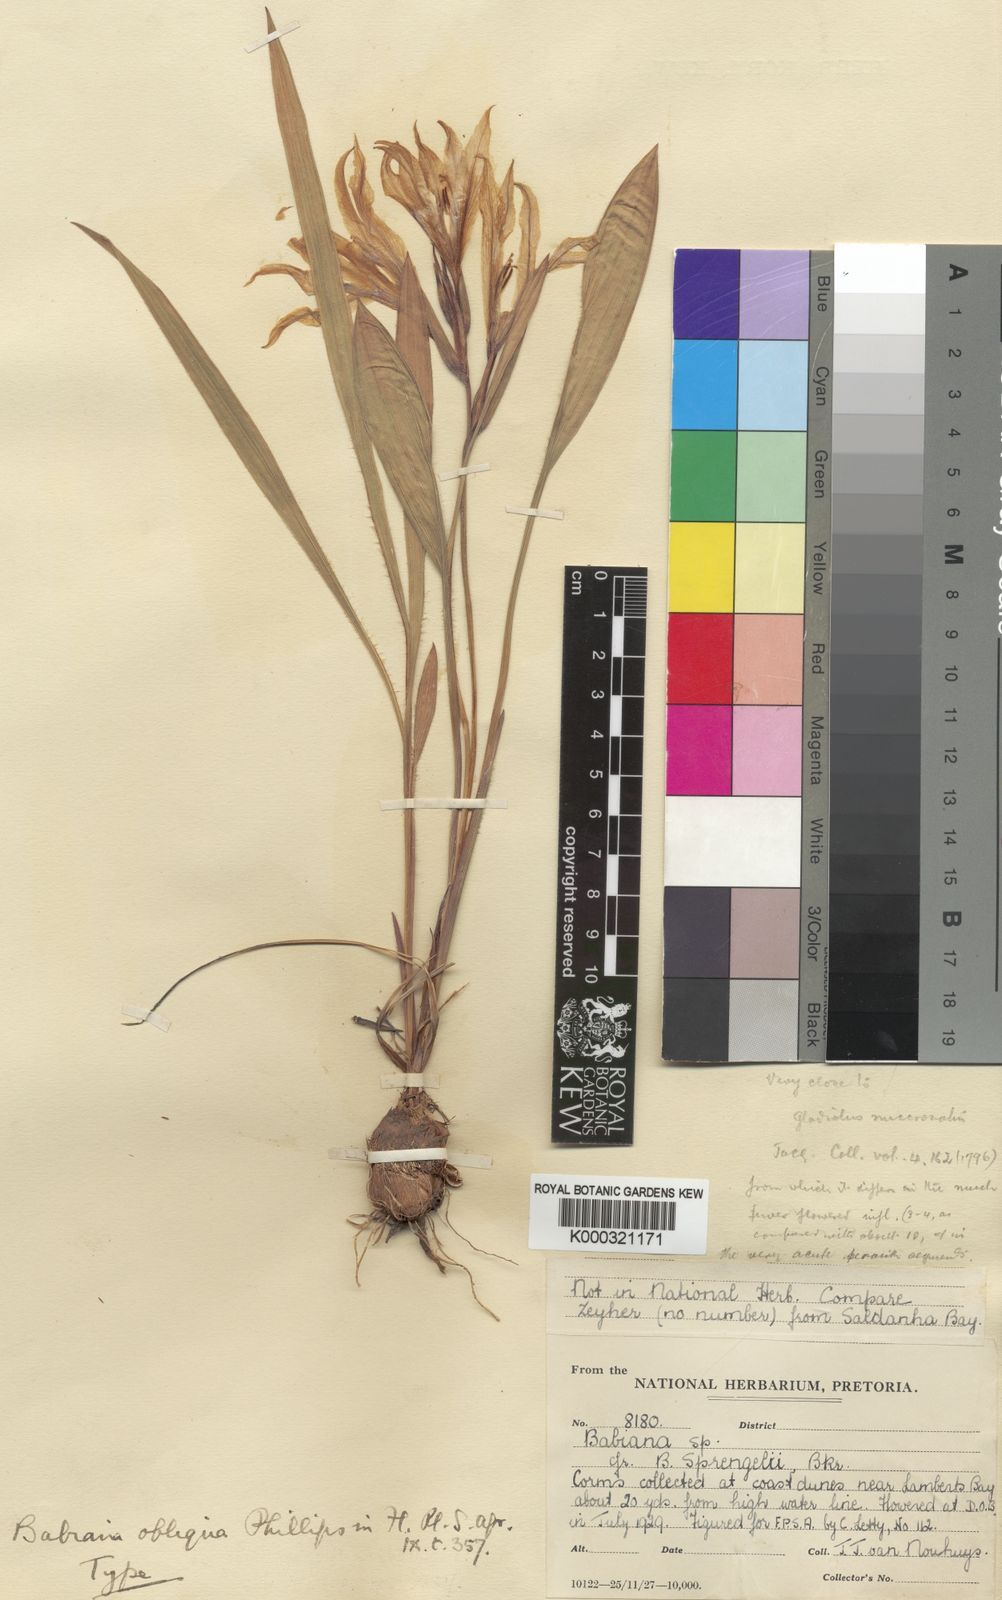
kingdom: Plantae
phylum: Tracheophyta
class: Liliopsida
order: Asparagales
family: Iridaceae
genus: Babiana
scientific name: Babiana ambigua
